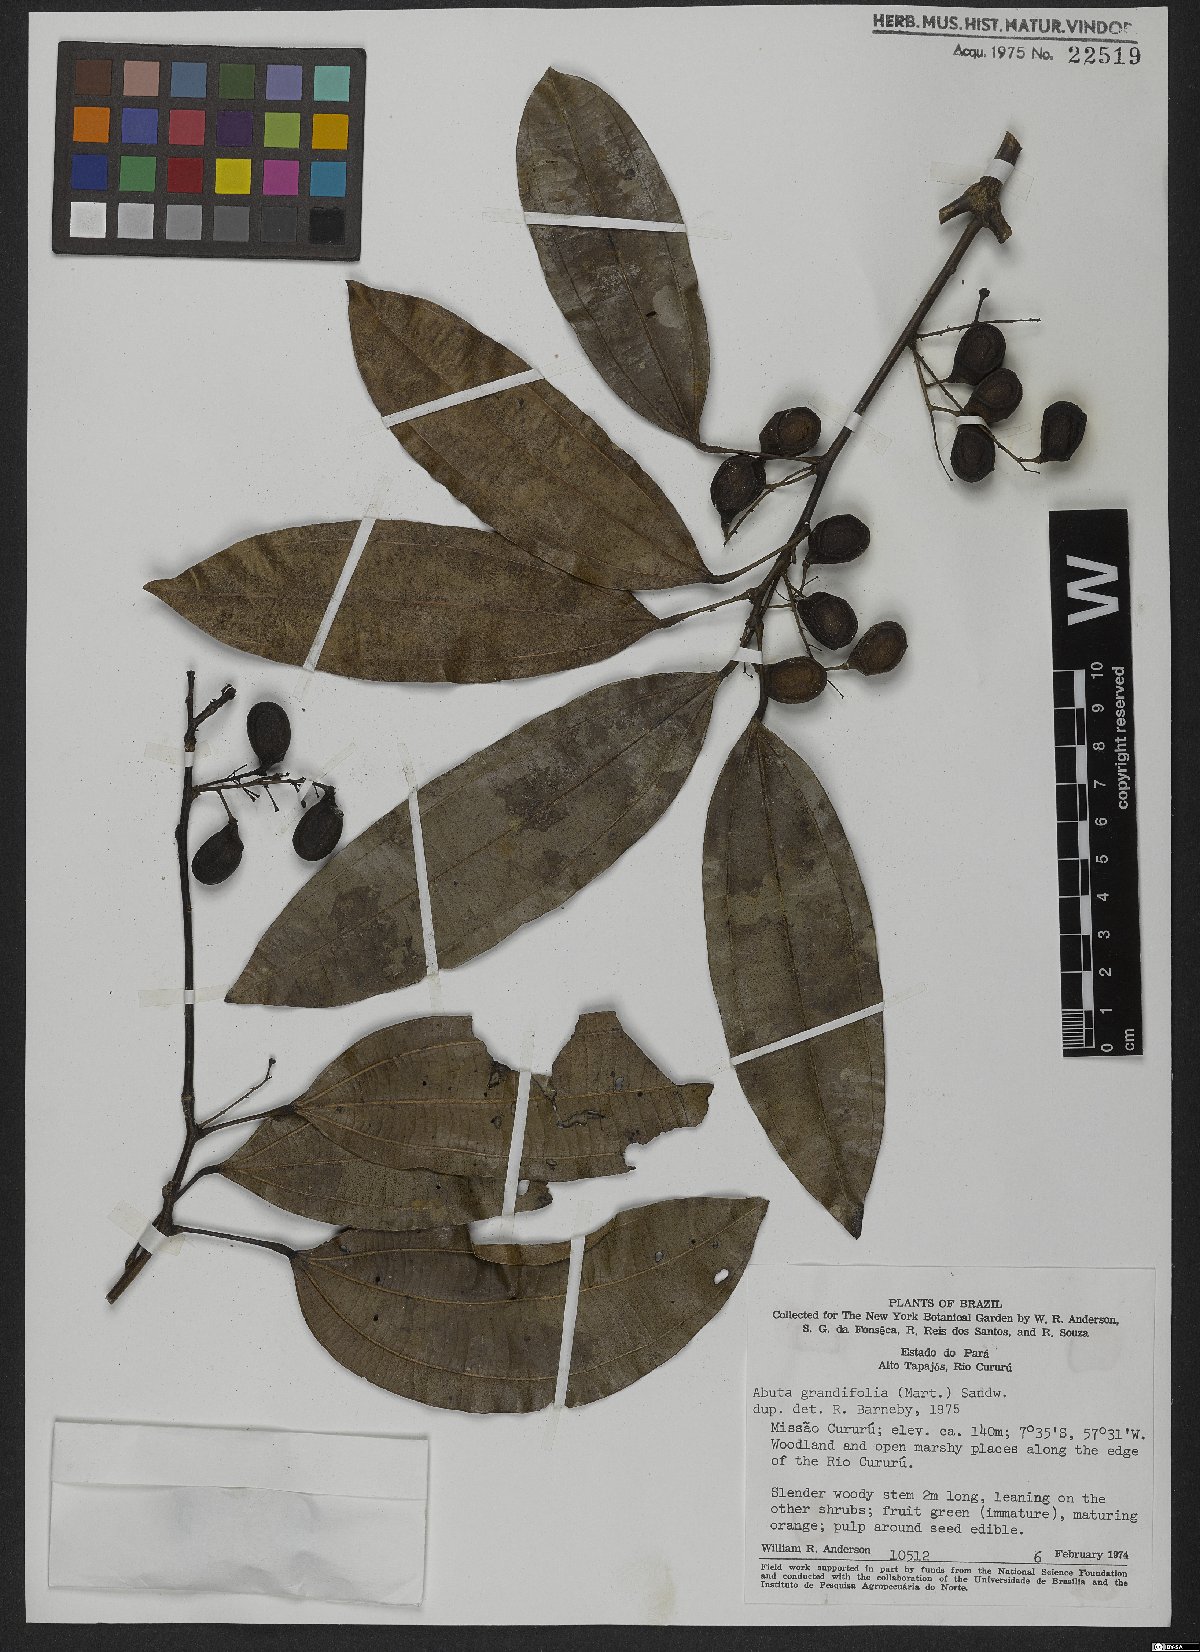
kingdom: Plantae
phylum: Tracheophyta
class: Magnoliopsida
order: Ranunculales
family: Menispermaceae
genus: Abuta
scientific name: Abuta grandifolia
